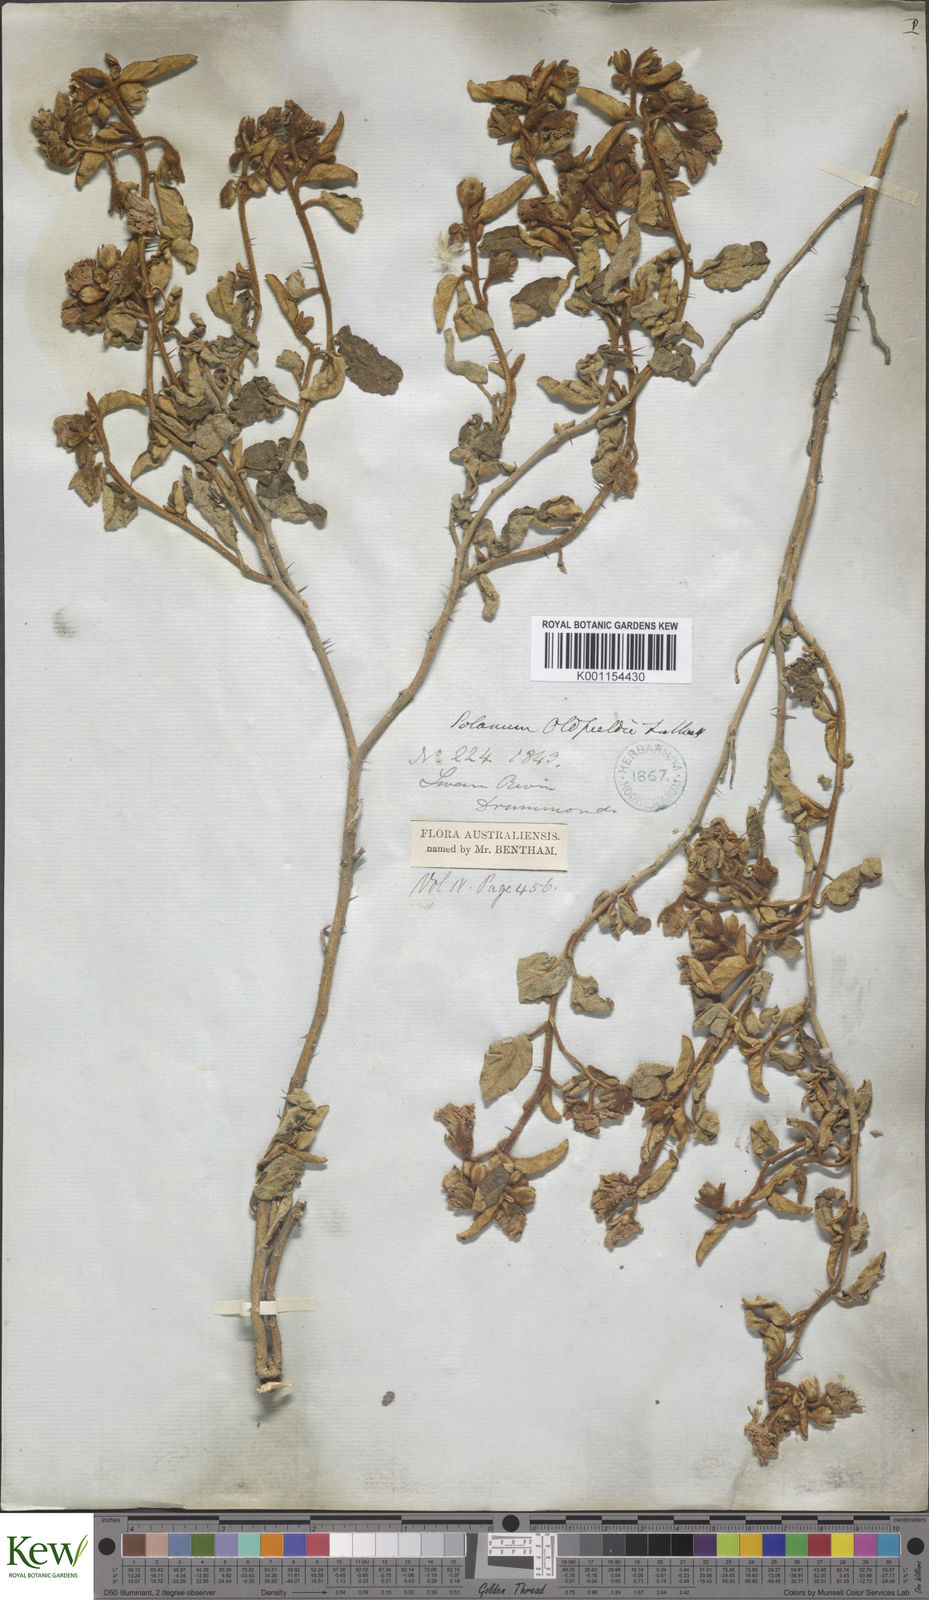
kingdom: Plantae
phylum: Tracheophyta
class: Magnoliopsida
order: Solanales
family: Solanaceae
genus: Solanum
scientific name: Solanum oldfieldii
